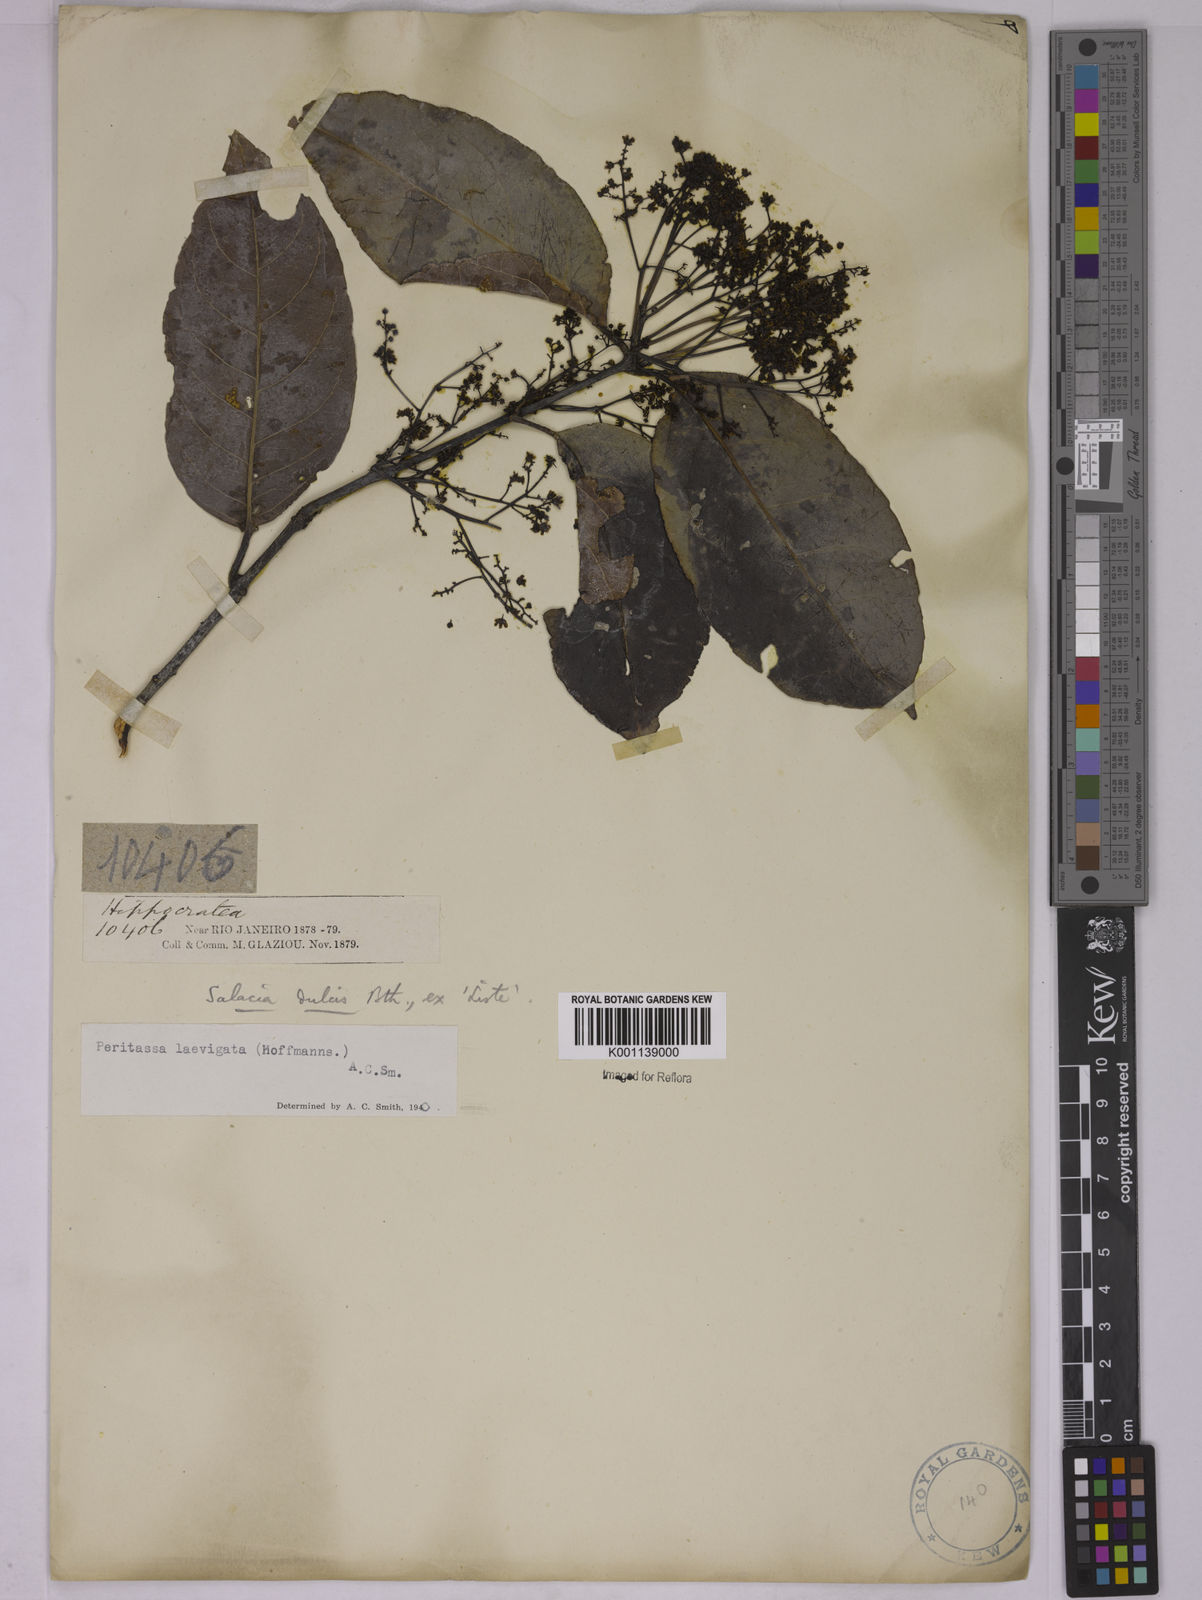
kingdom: Plantae
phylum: Tracheophyta
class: Magnoliopsida
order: Celastrales
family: Celastraceae
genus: Peritassa
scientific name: Peritassa laevigata
